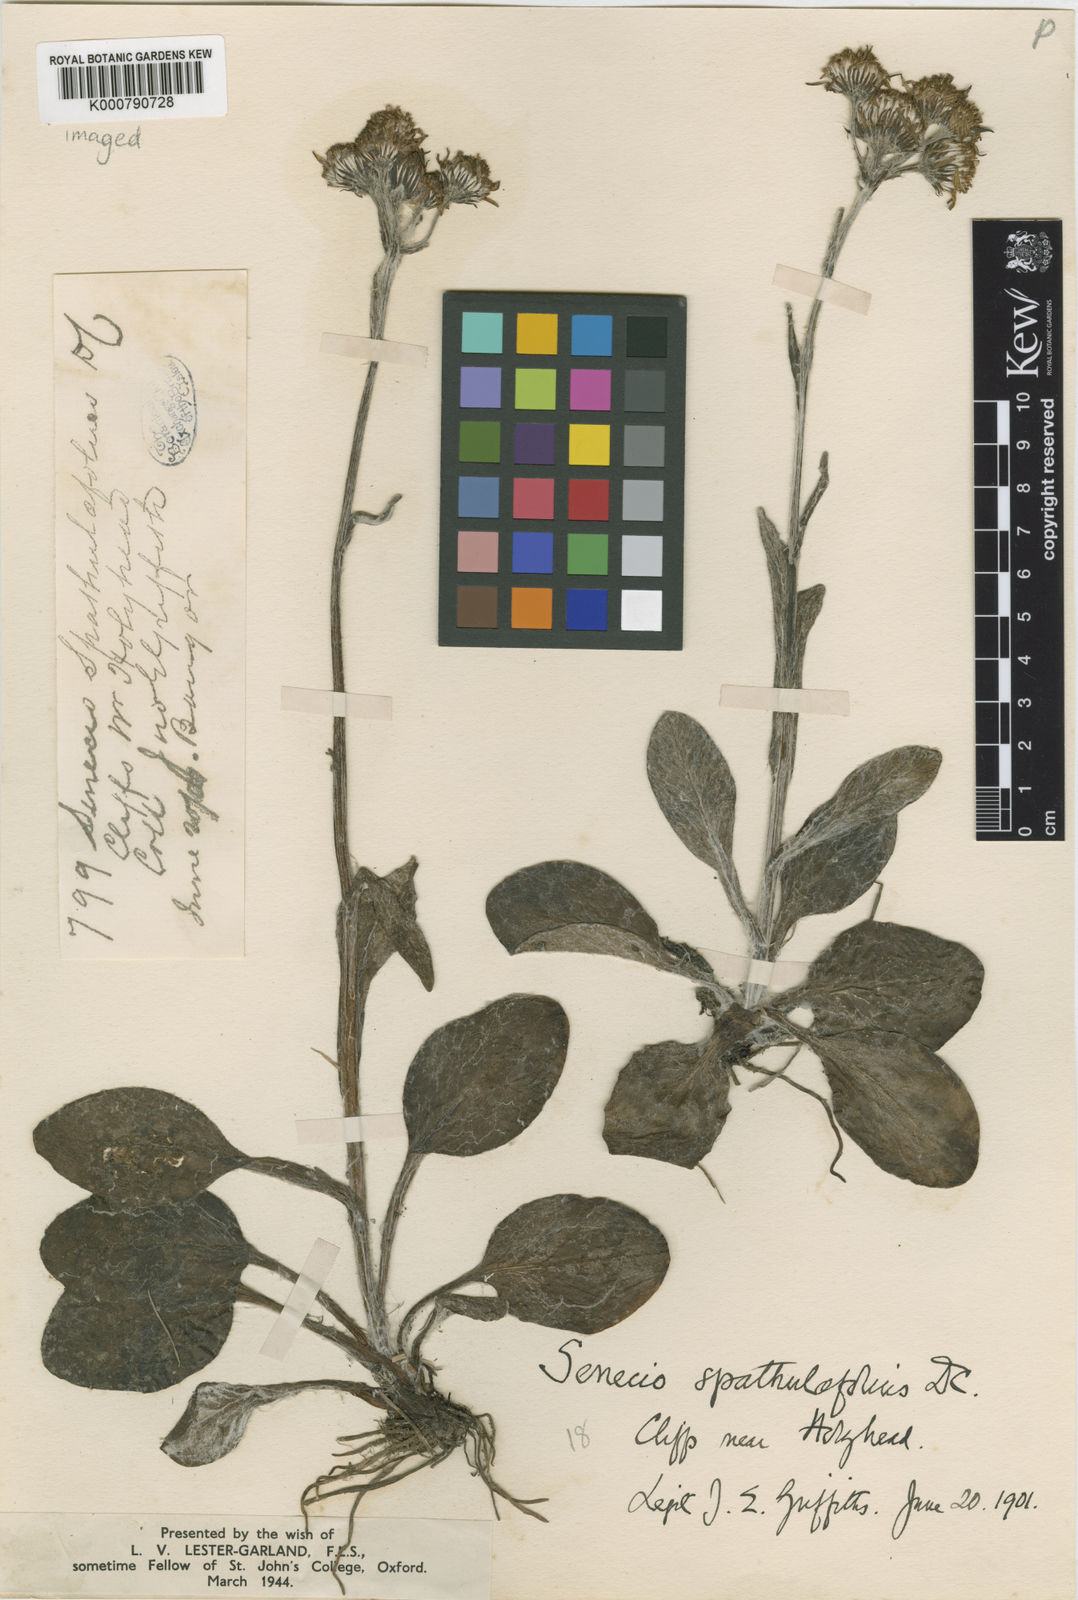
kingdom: Plantae
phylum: Tracheophyta
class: Magnoliopsida
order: Asterales
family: Asteraceae
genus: Tephroseris
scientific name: Tephroseris integrifolia
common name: Field fleawort
